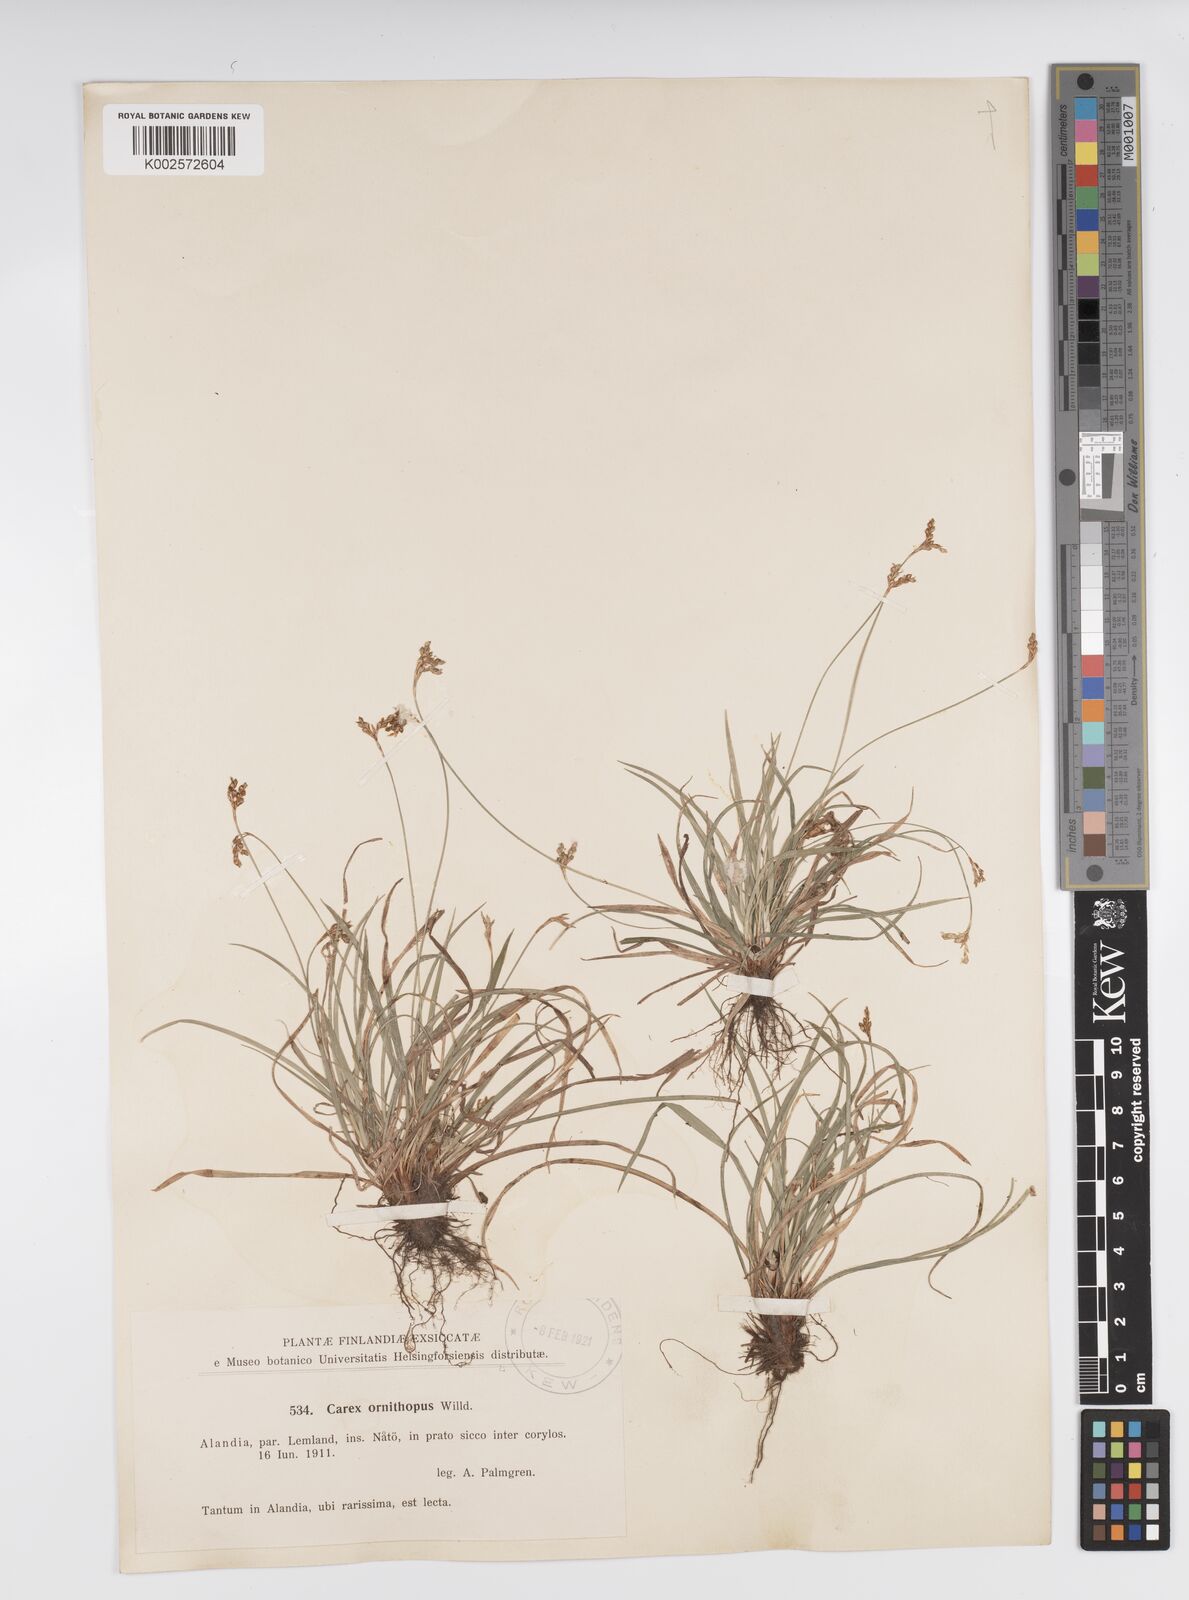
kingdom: Plantae
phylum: Tracheophyta
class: Liliopsida
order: Poales
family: Cyperaceae
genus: Carex
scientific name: Carex ornithopoda
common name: Bird's-foot sedge
